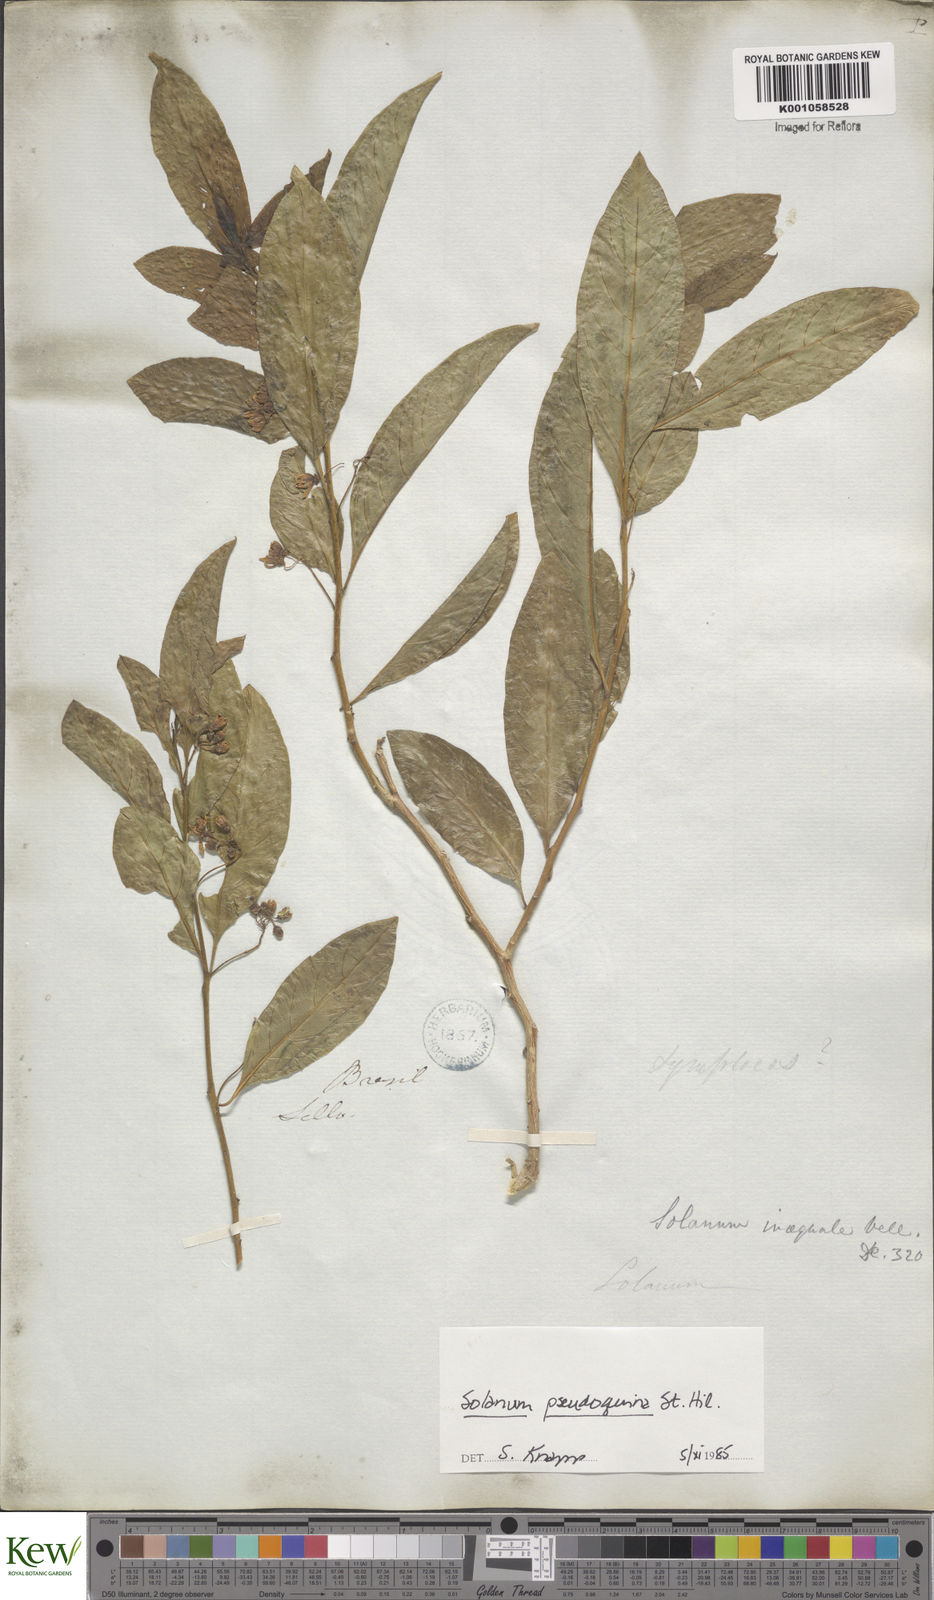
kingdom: Plantae
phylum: Tracheophyta
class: Magnoliopsida
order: Solanales
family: Solanaceae
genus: Solanum
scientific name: Solanum pseudoquina
